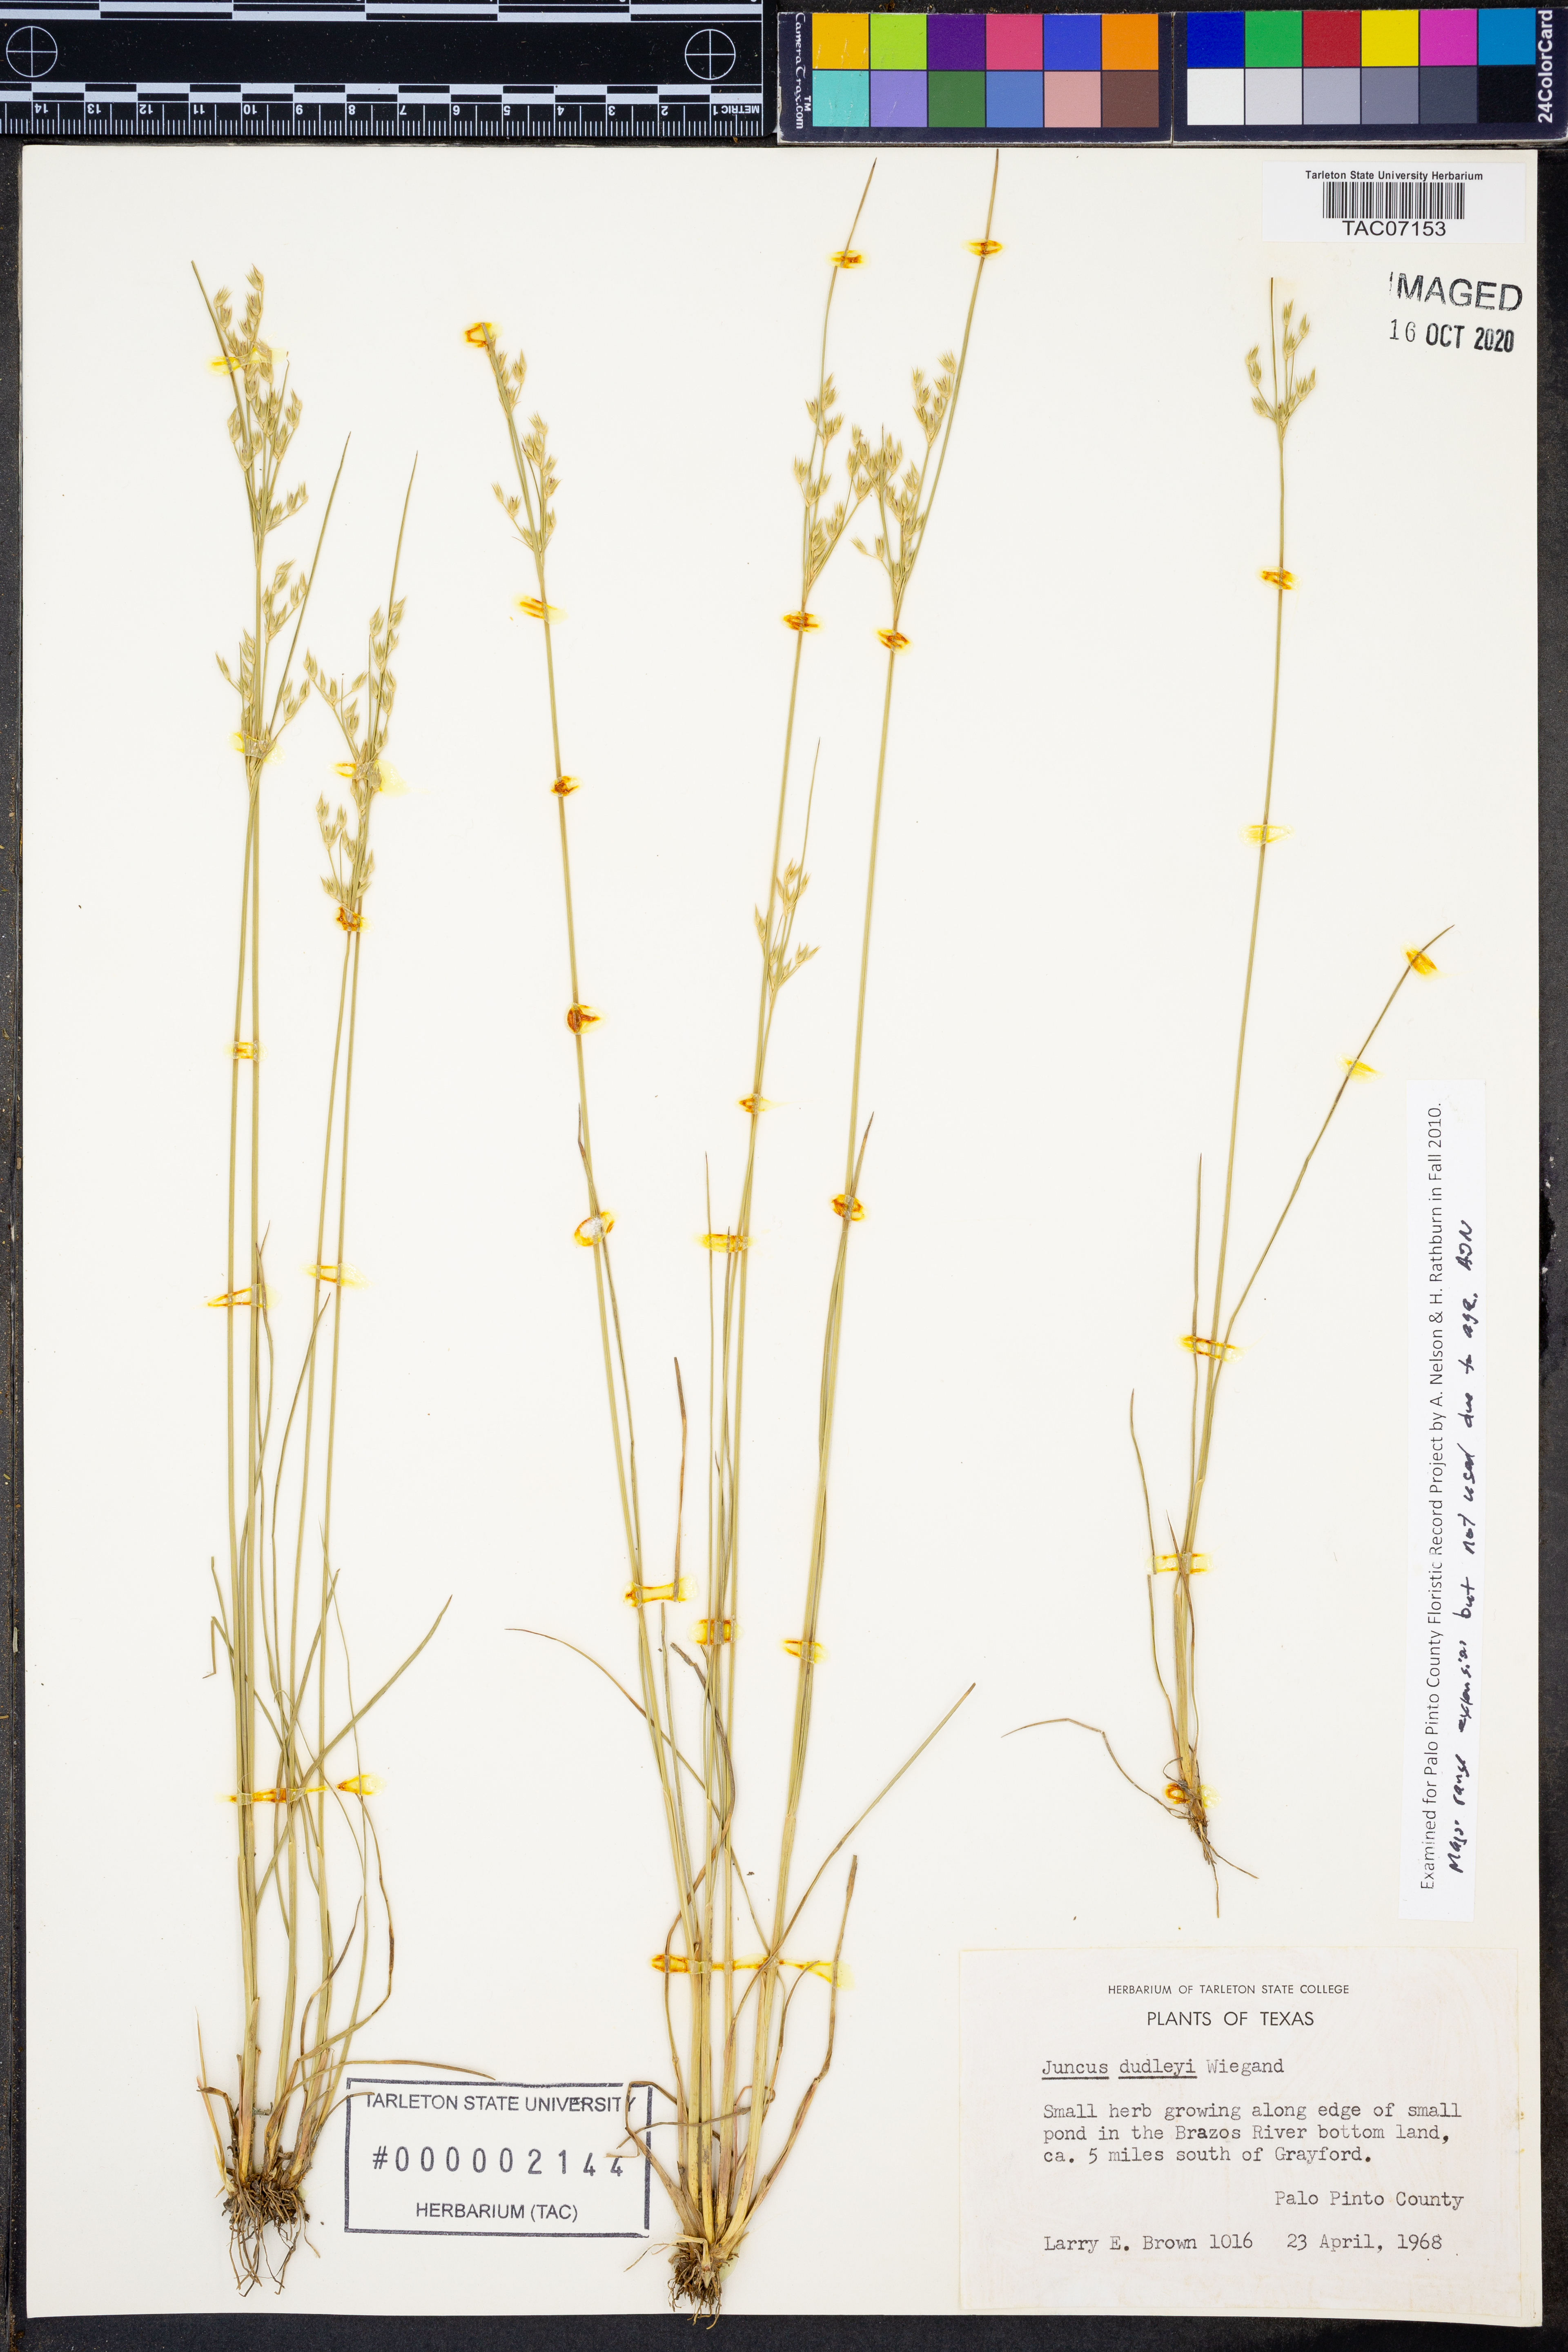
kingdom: Plantae
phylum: Tracheophyta
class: Liliopsida
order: Poales
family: Juncaceae
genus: Juncus
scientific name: Juncus dudleyi
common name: Dudley's rush
